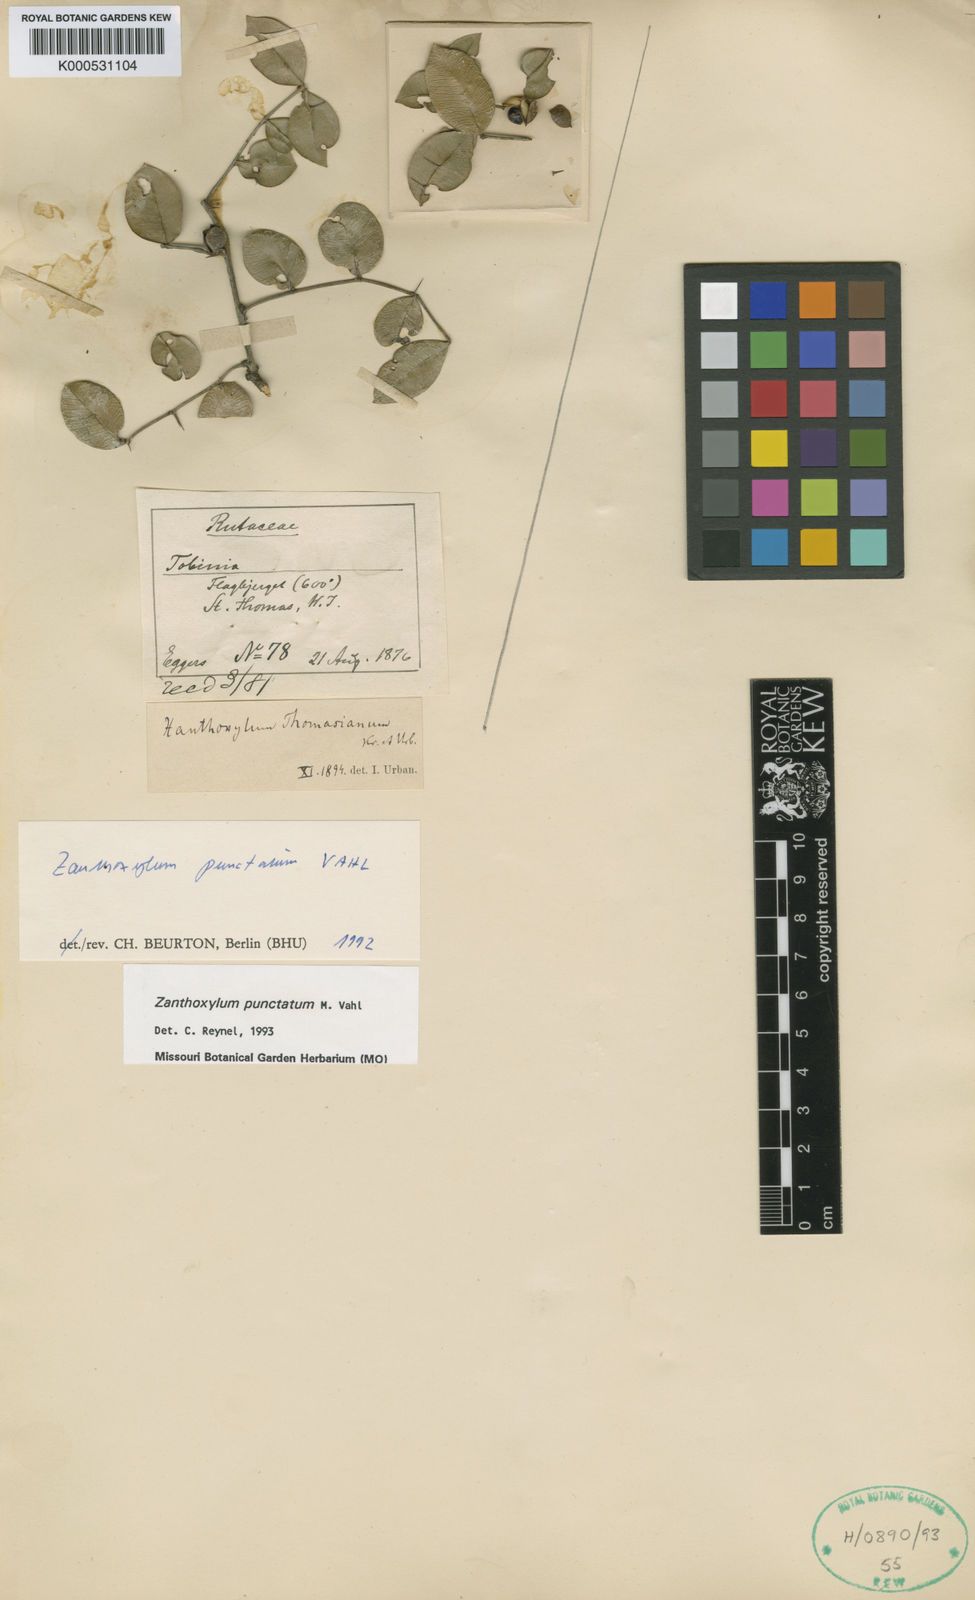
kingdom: Plantae
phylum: Tracheophyta
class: Magnoliopsida
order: Sapindales
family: Rutaceae
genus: Zanthoxylum
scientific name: Zanthoxylum punctatum
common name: Dotted pricklyash
